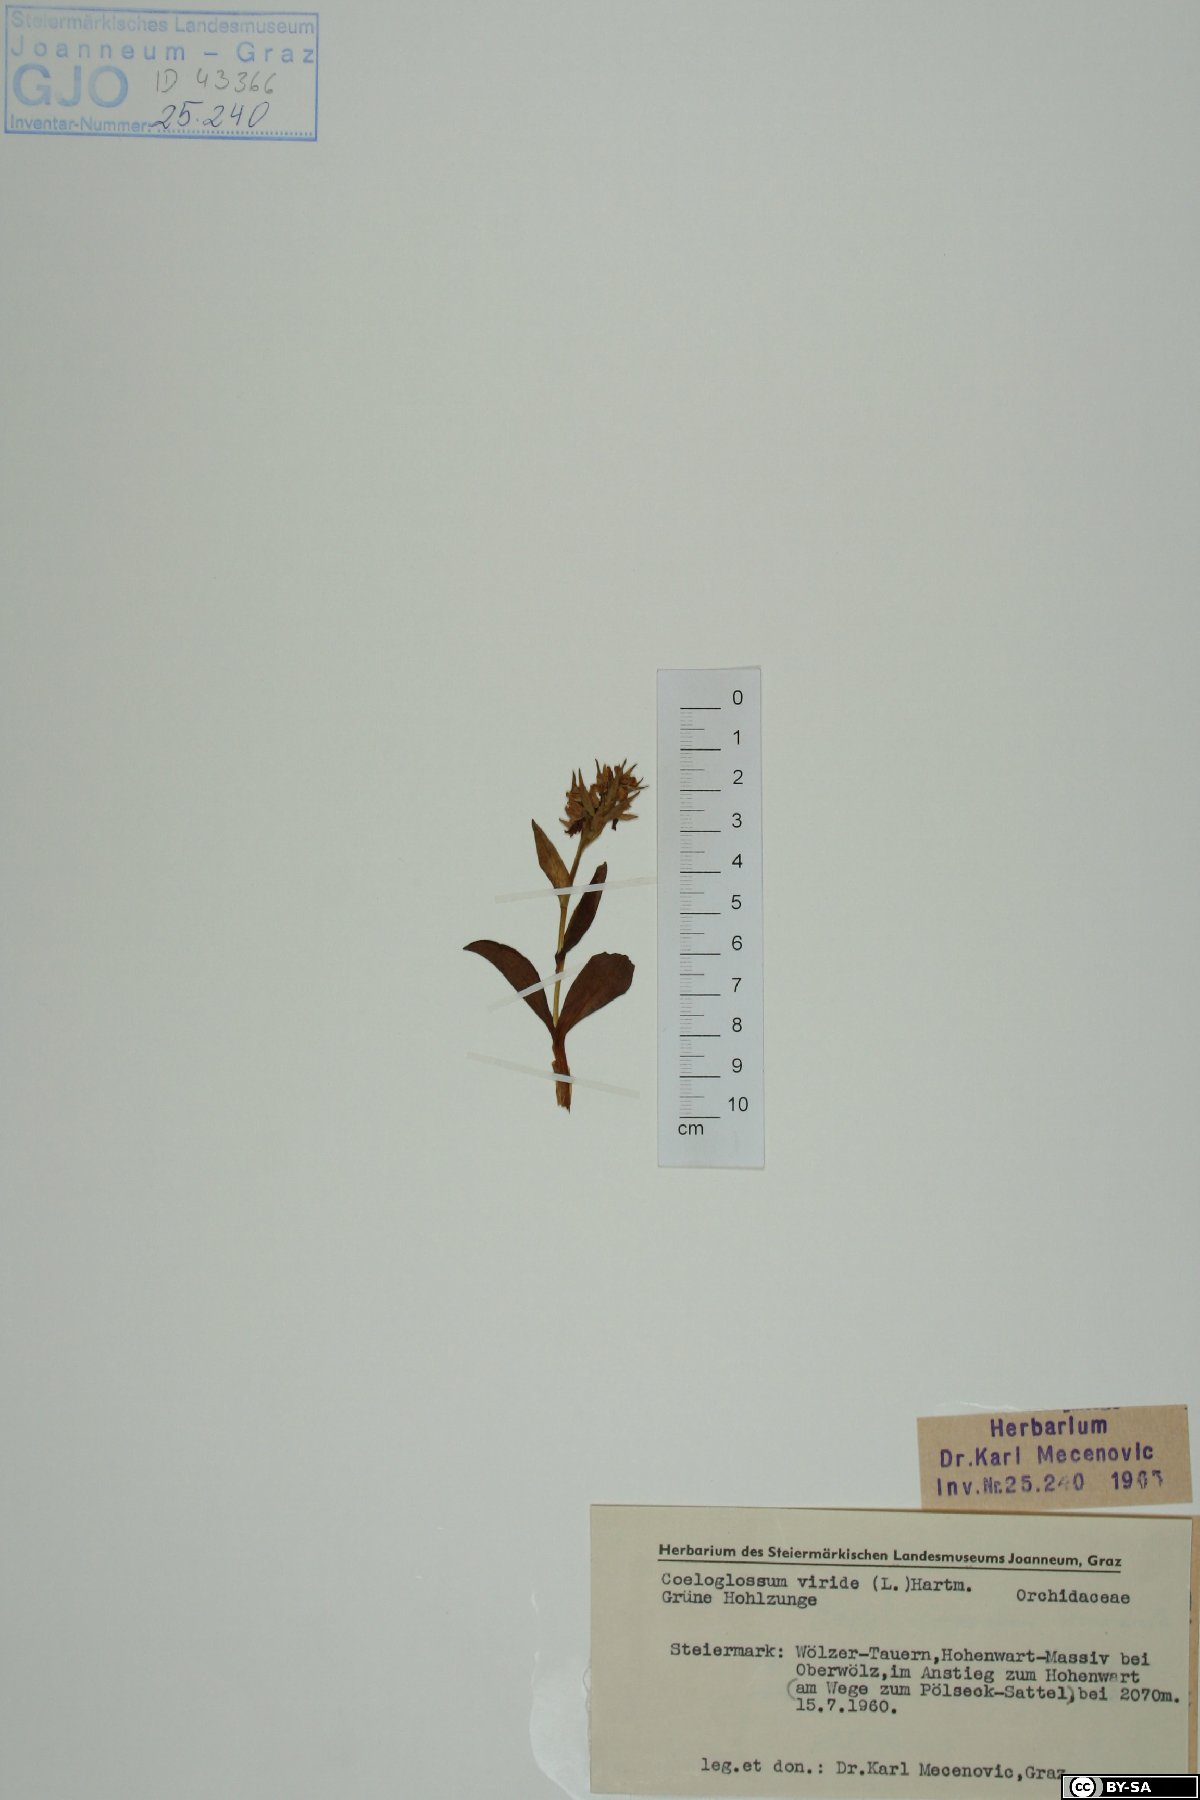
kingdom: Plantae
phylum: Tracheophyta
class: Liliopsida
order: Asparagales
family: Orchidaceae
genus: Dactylorhiza
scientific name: Dactylorhiza viridis
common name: Longbract frog orchid
